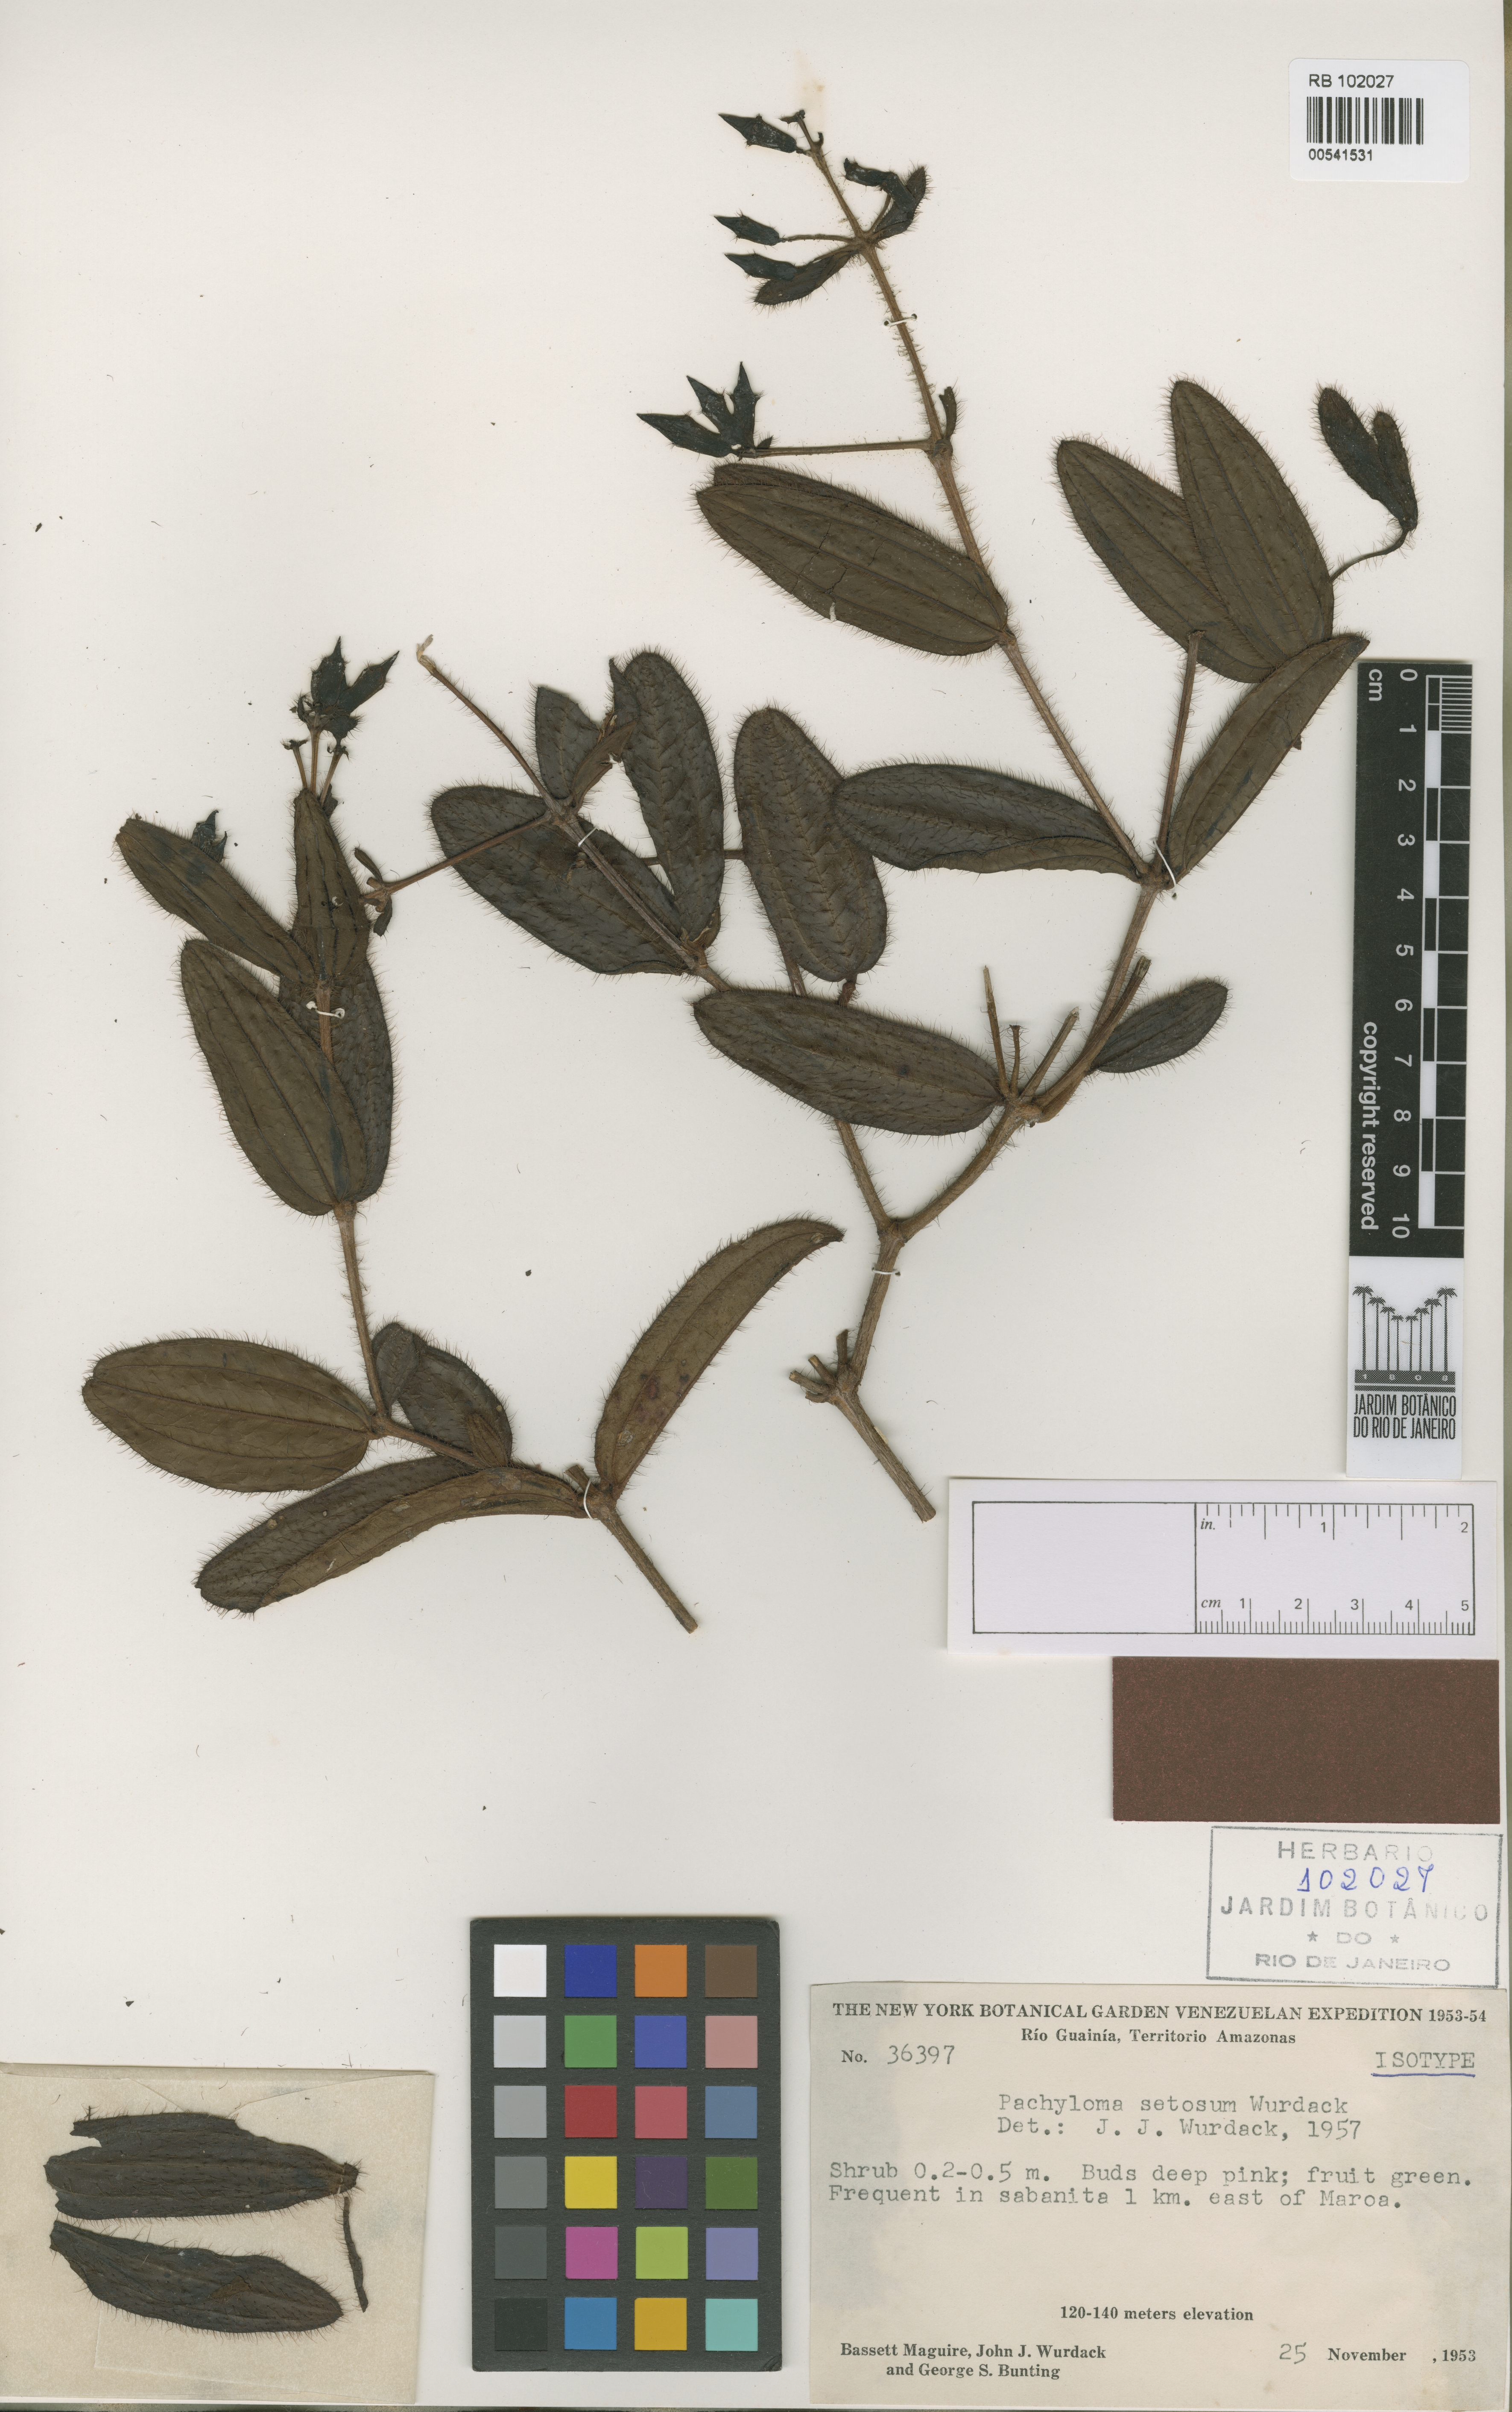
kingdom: Plantae
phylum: Tracheophyta
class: Magnoliopsida
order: Myrtales
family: Melastomataceae
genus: Pachyloma
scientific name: Pachyloma setosum
